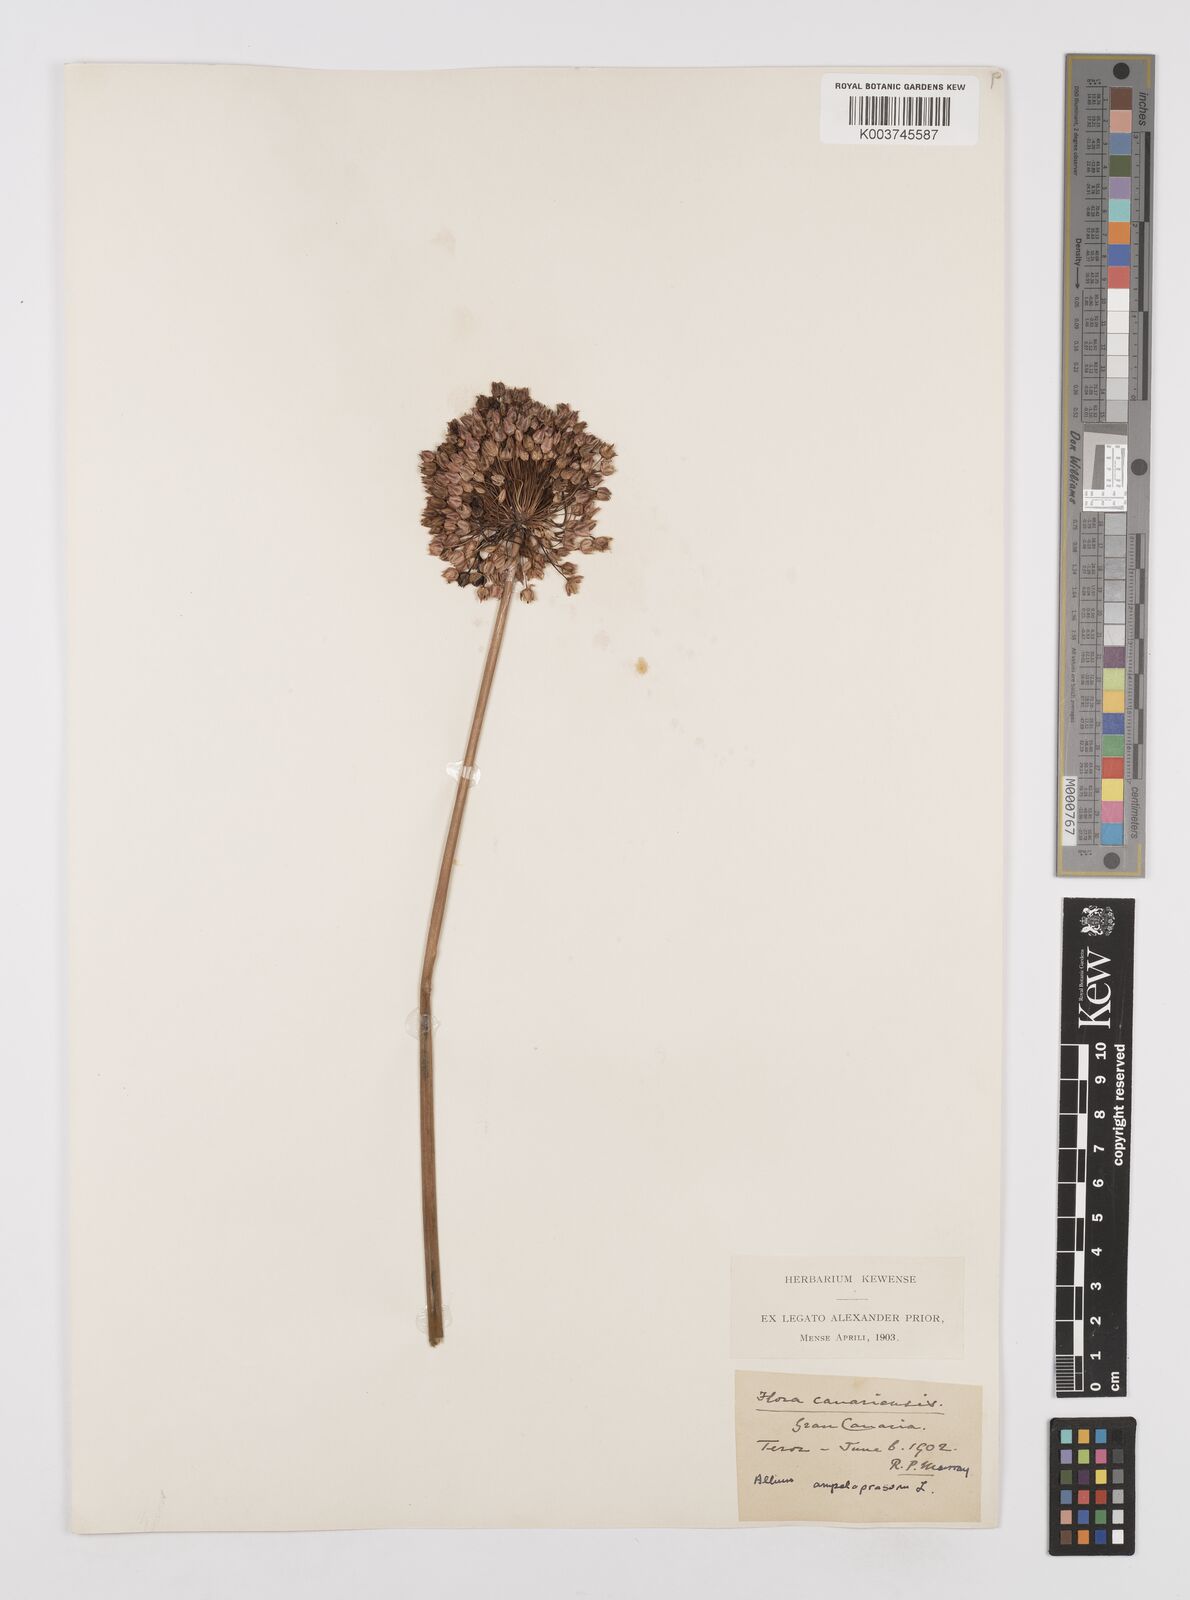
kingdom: Plantae
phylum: Tracheophyta
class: Liliopsida
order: Asparagales
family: Amaryllidaceae
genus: Allium
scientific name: Allium rotundum
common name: Sand leek
